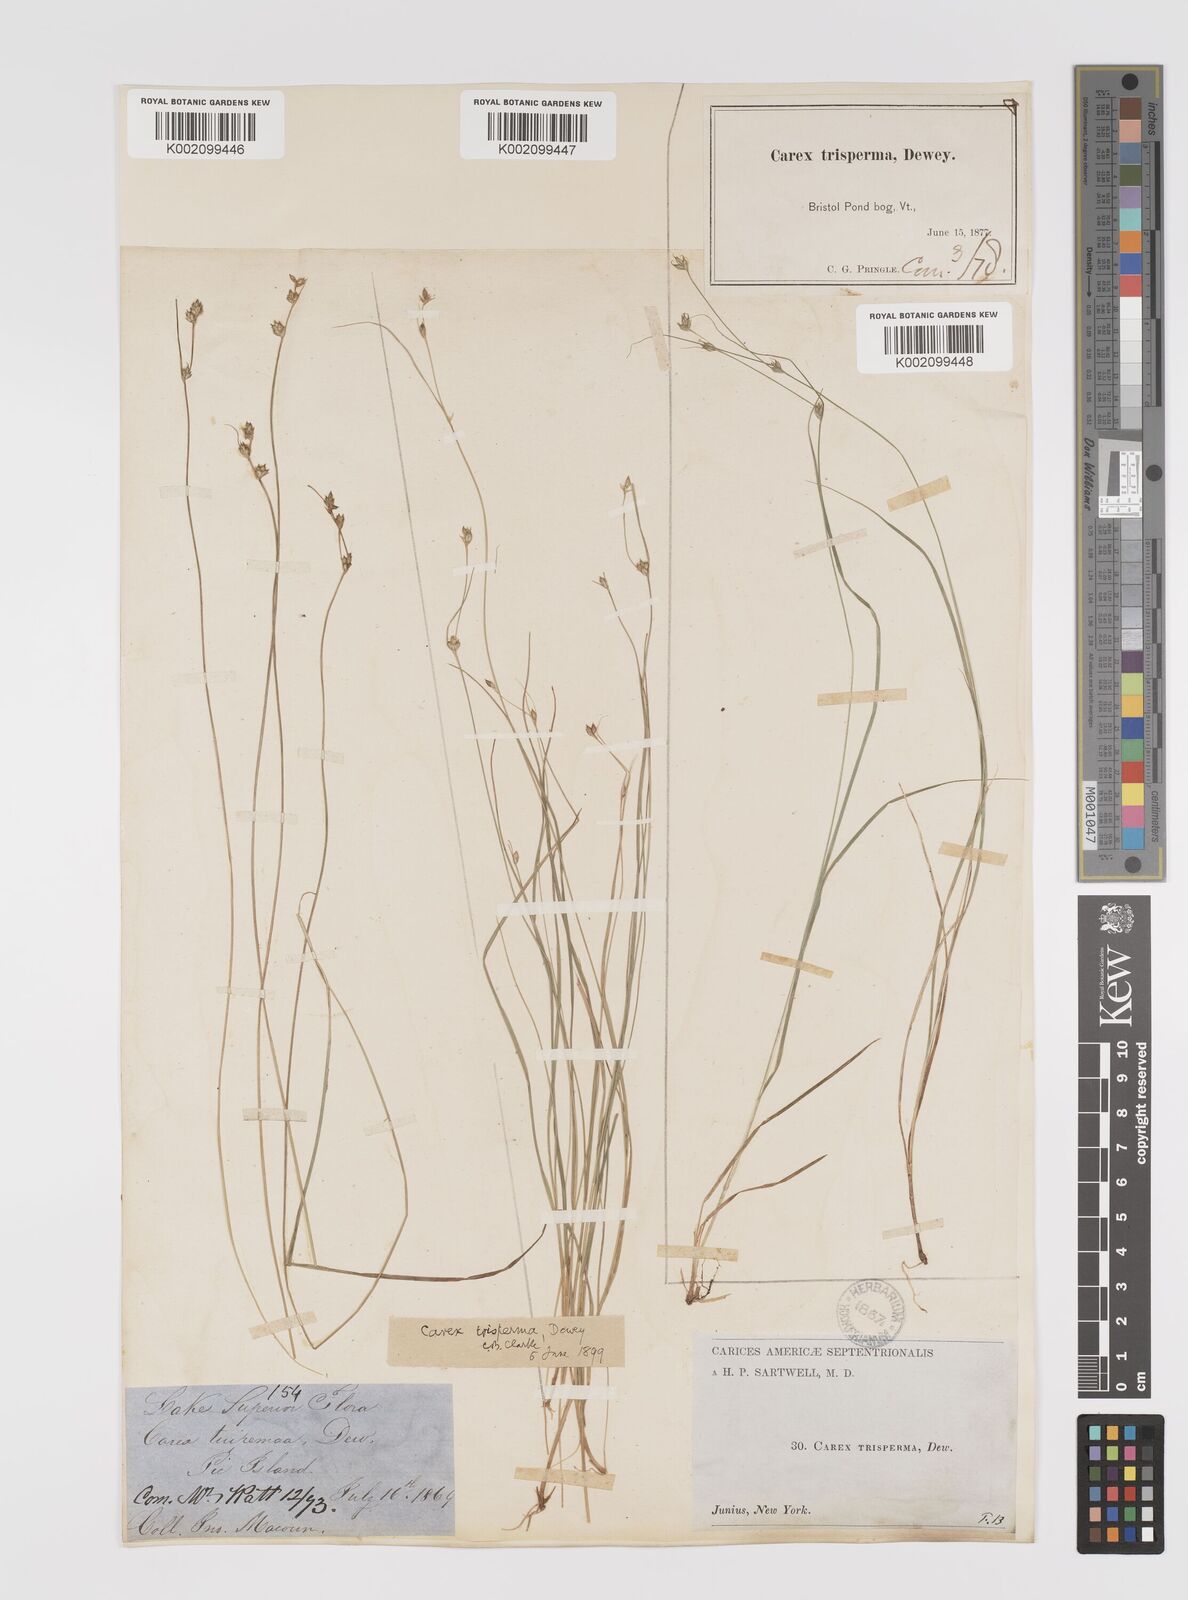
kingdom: Plantae
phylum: Tracheophyta
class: Liliopsida
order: Poales
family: Cyperaceae
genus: Carex
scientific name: Carex trisperma
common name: Three-seeded sedge
